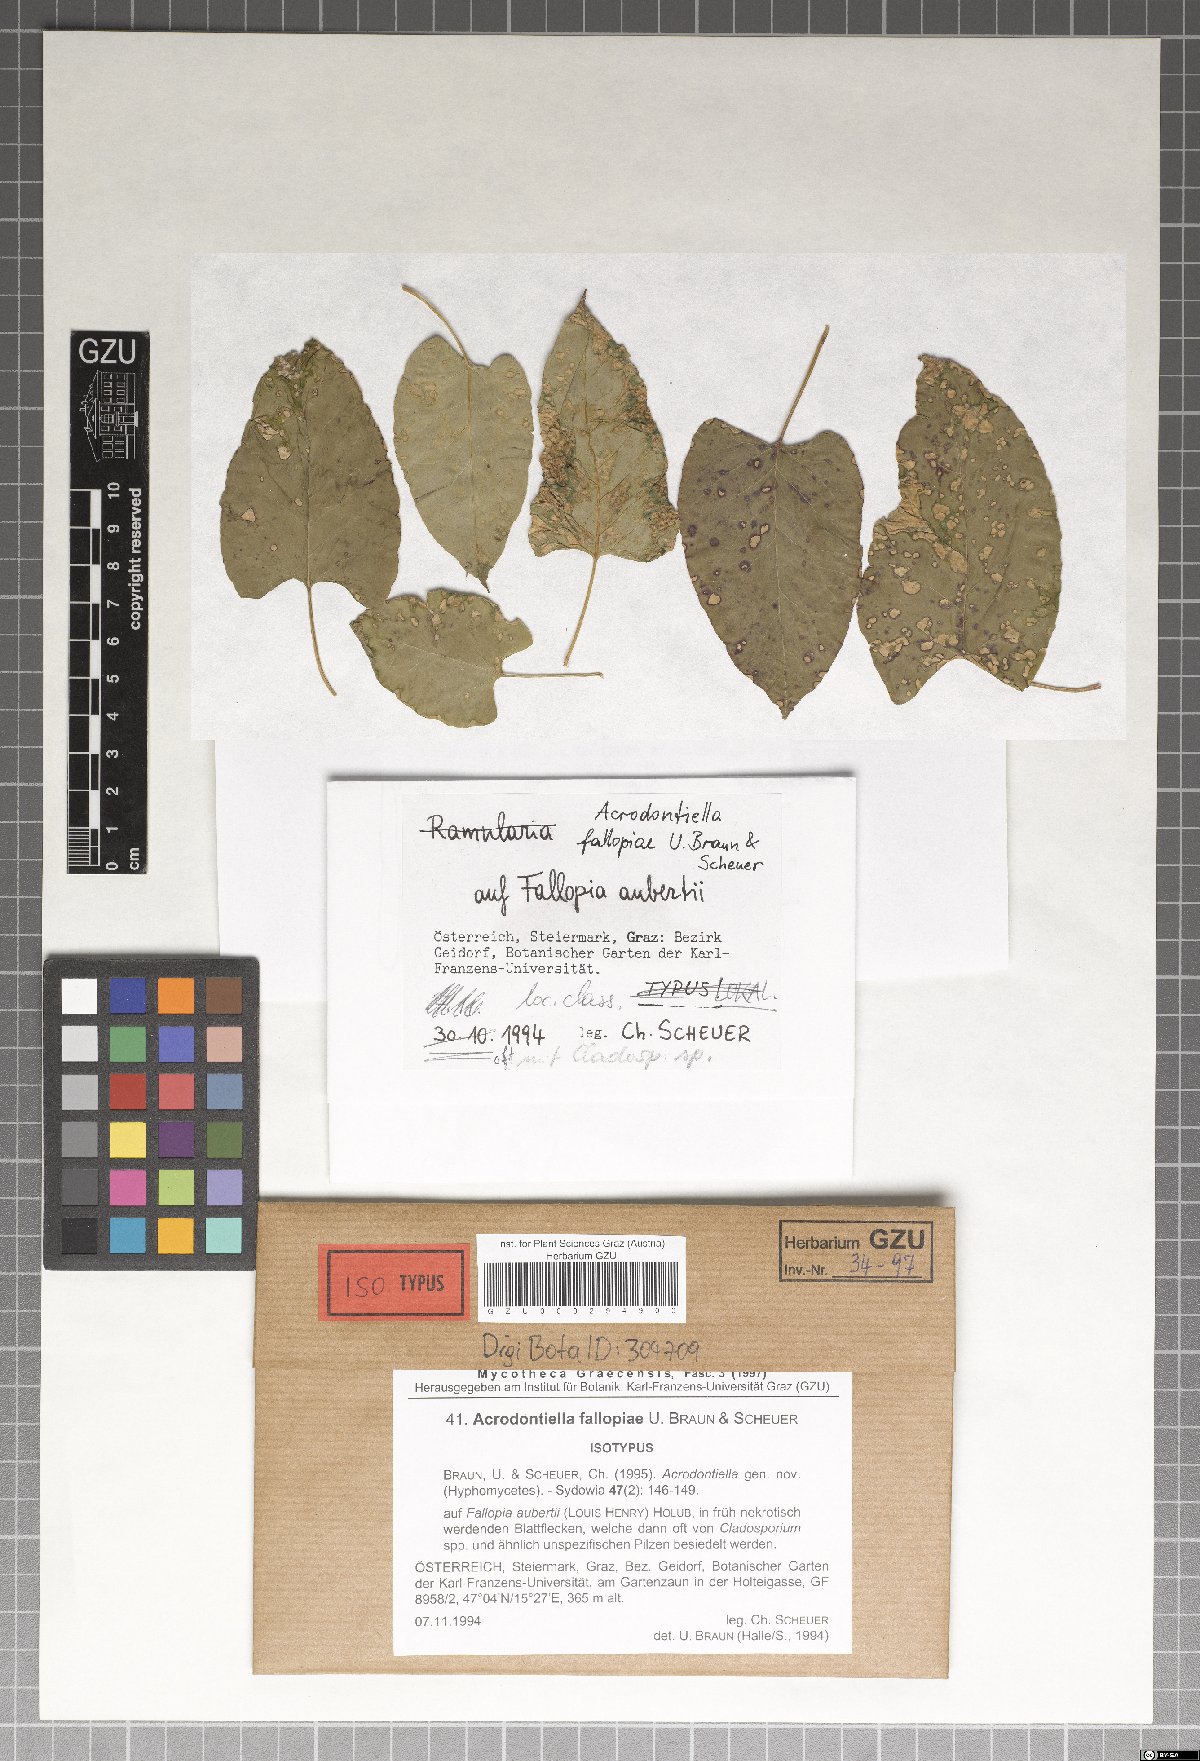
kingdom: Fungi
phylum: Ascomycota
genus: Acrodontiella
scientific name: Acrodontiella fallopiae
